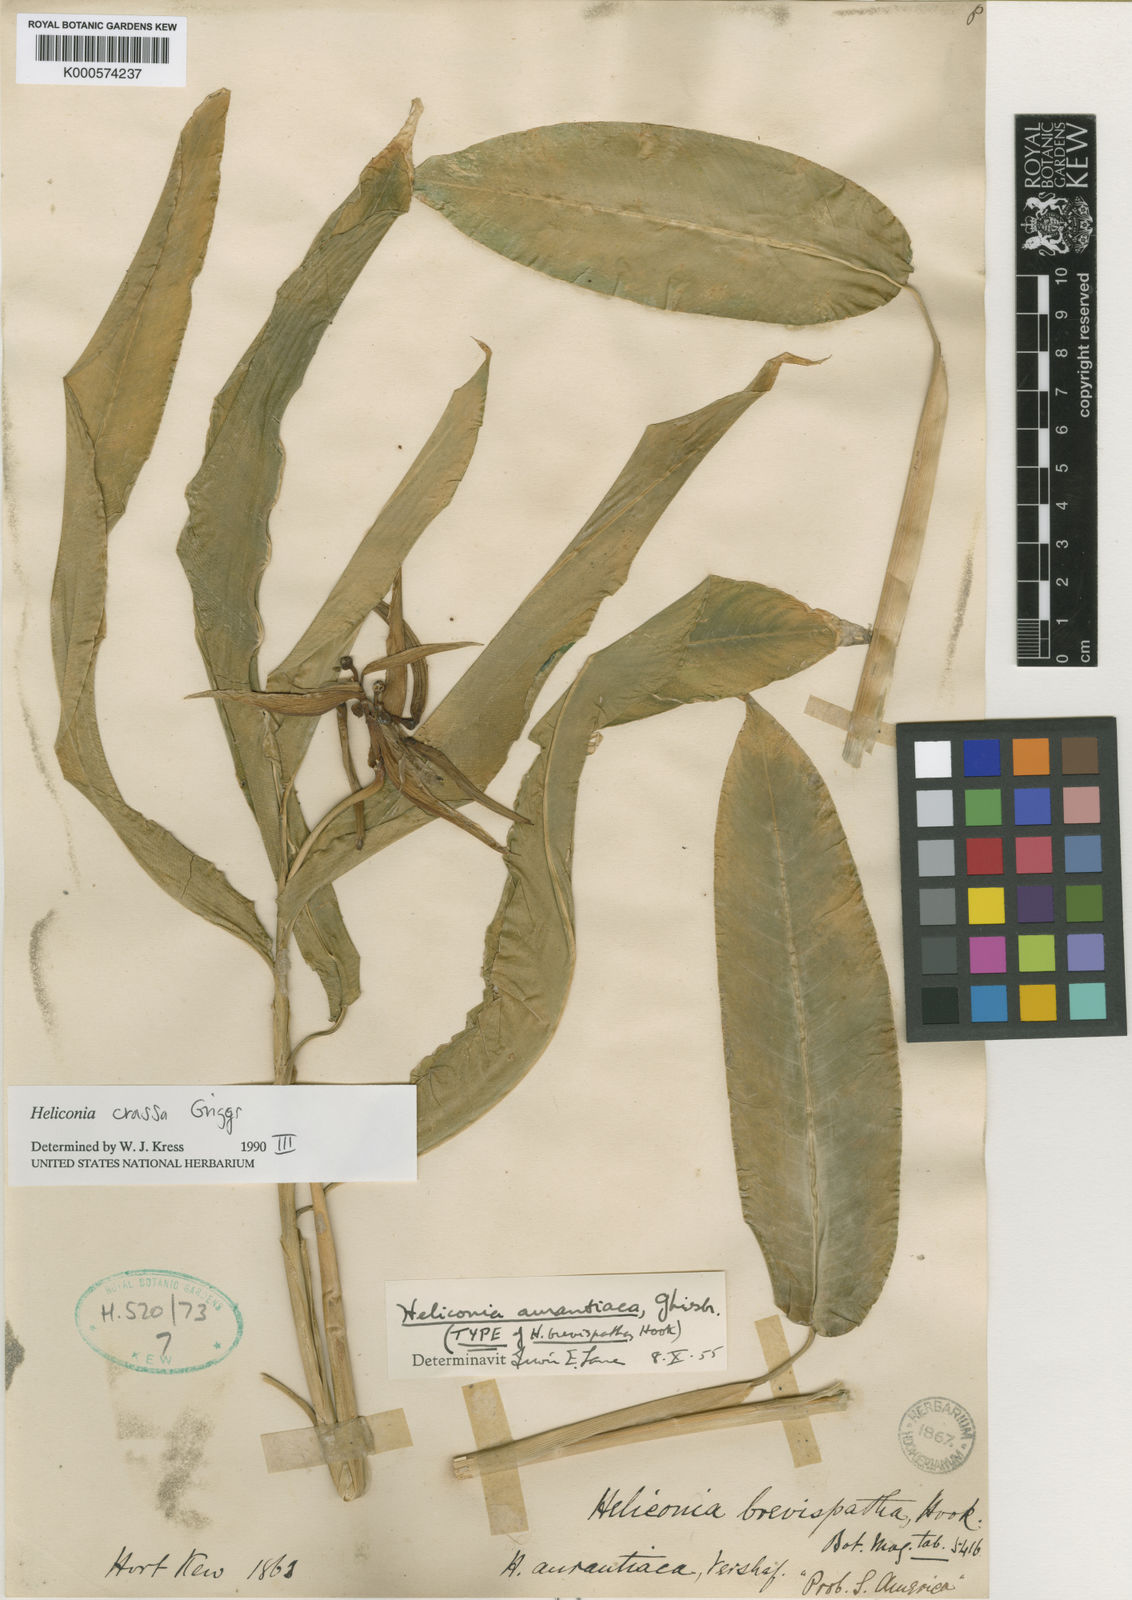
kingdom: Plantae
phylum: Tracheophyta
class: Liliopsida
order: Zingiberales
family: Heliconiaceae
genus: Heliconia
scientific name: Heliconia crassa
